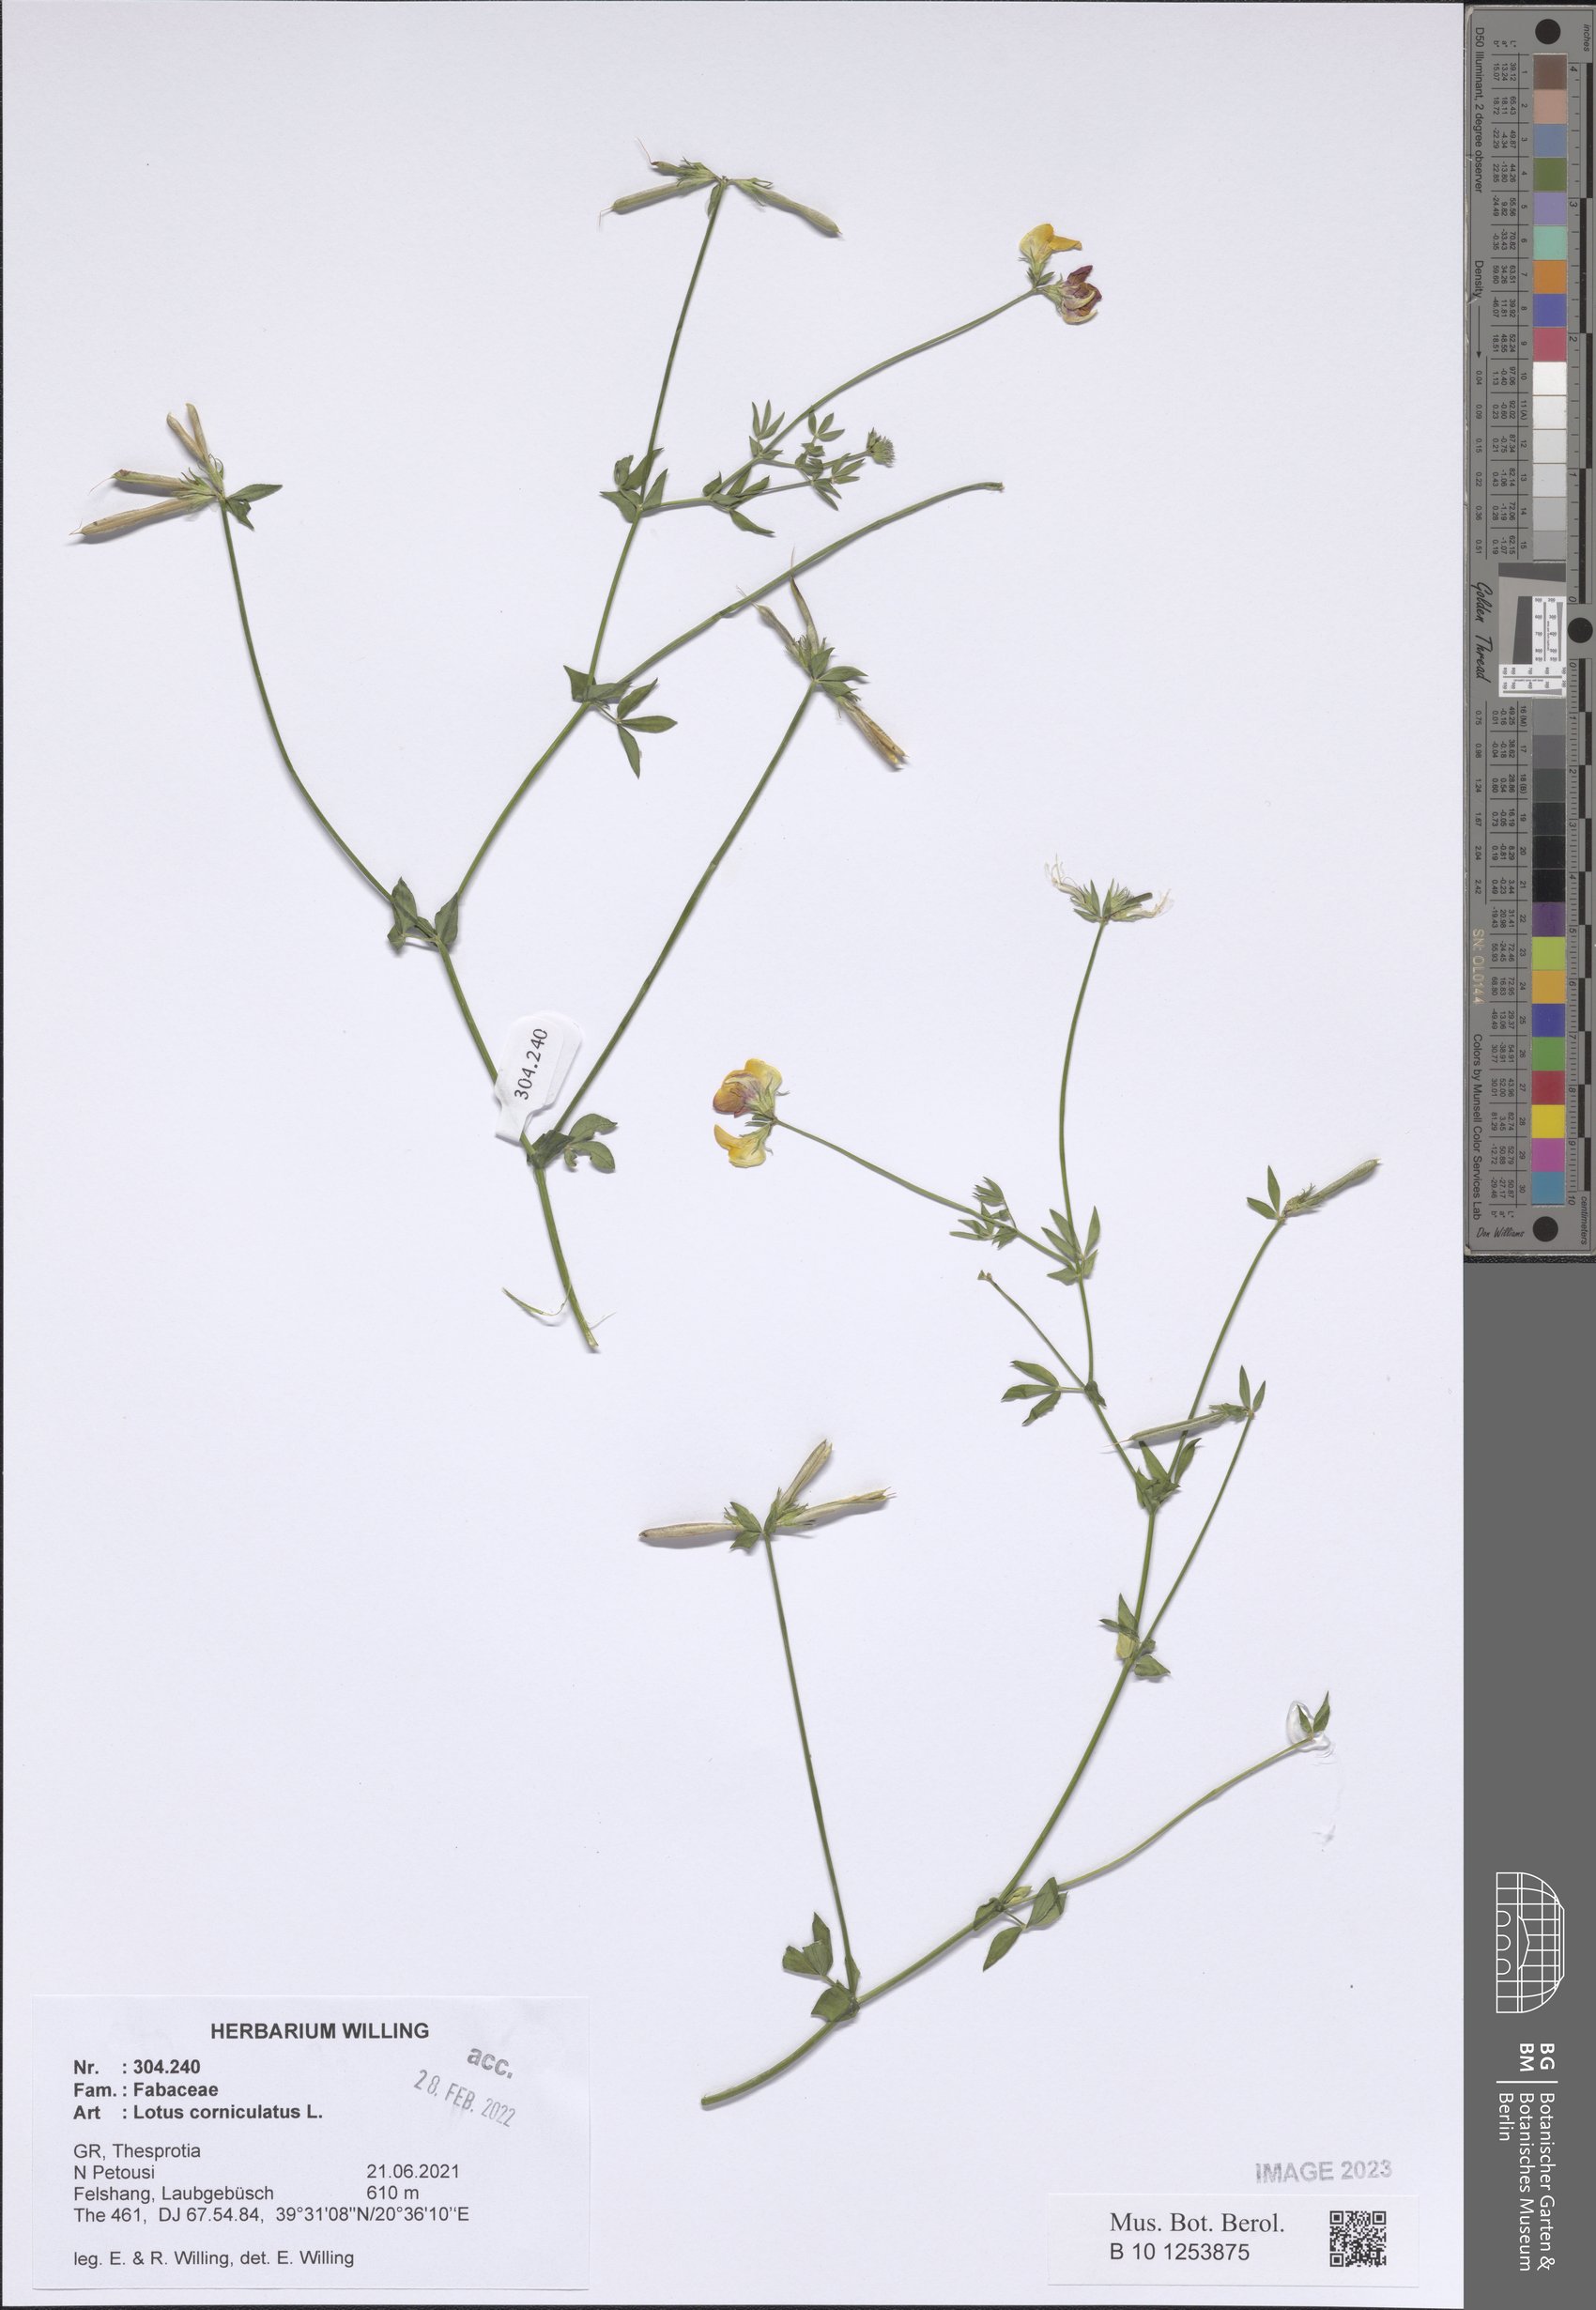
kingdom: Plantae
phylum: Tracheophyta
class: Magnoliopsida
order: Fabales
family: Fabaceae
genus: Lotus
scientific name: Lotus corniculatus
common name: Common bird's-foot-trefoil
